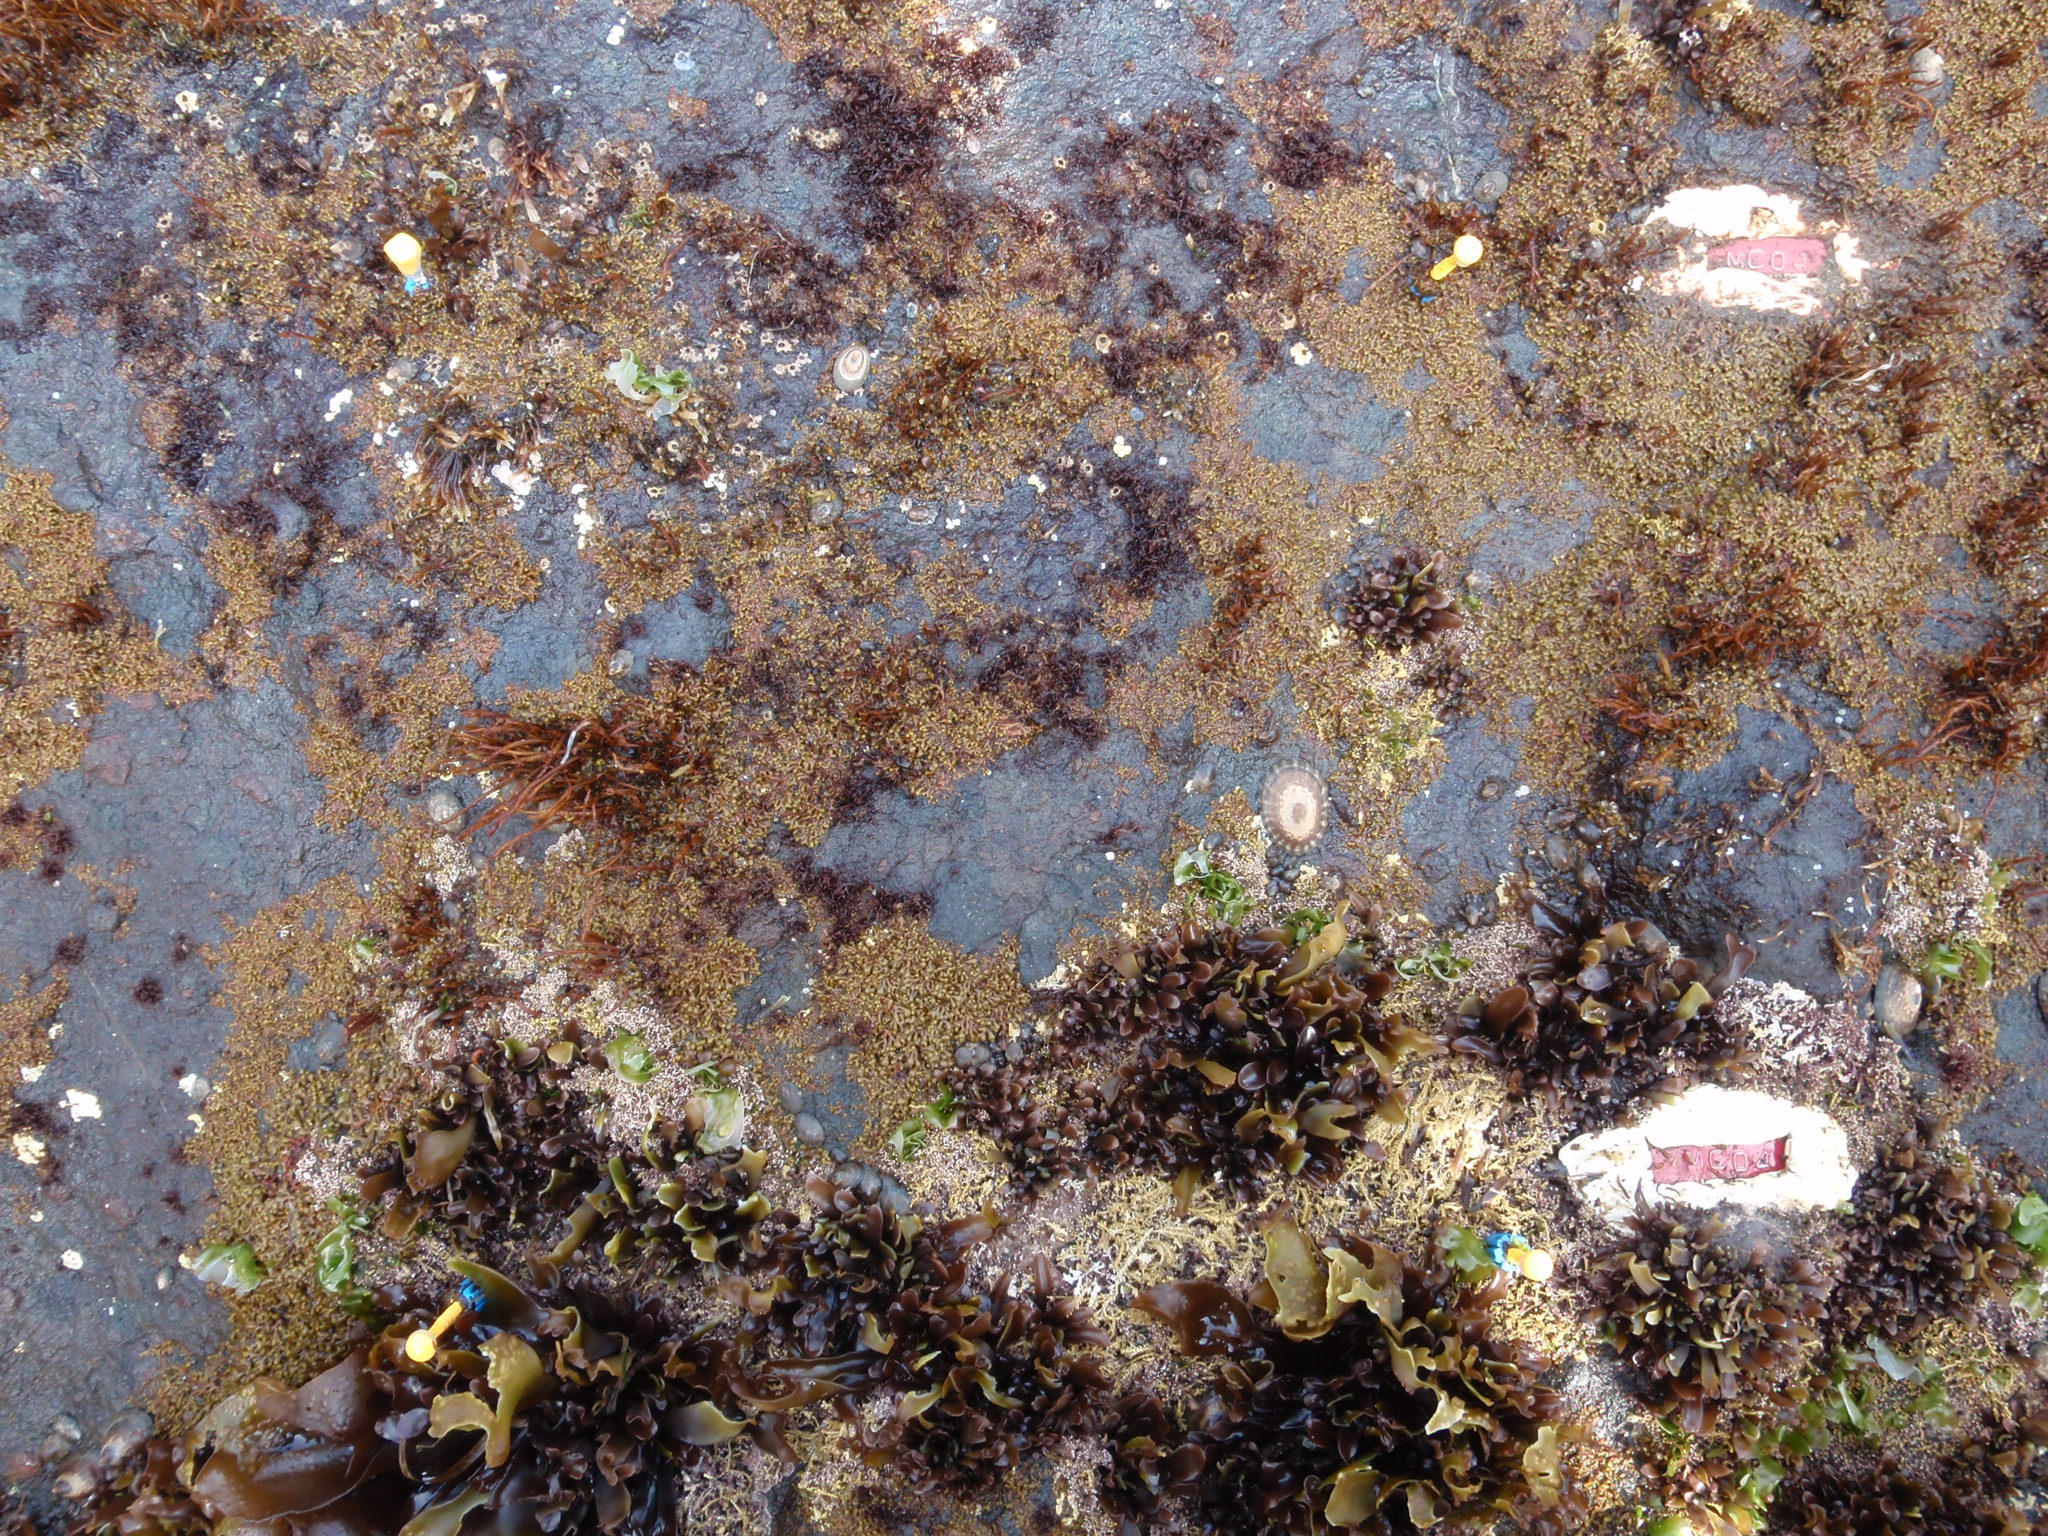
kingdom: Plantae
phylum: Rhodophyta
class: Florideophyceae
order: Corallinales
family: Corallinaceae
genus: Corallina
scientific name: Corallina pilulifera
